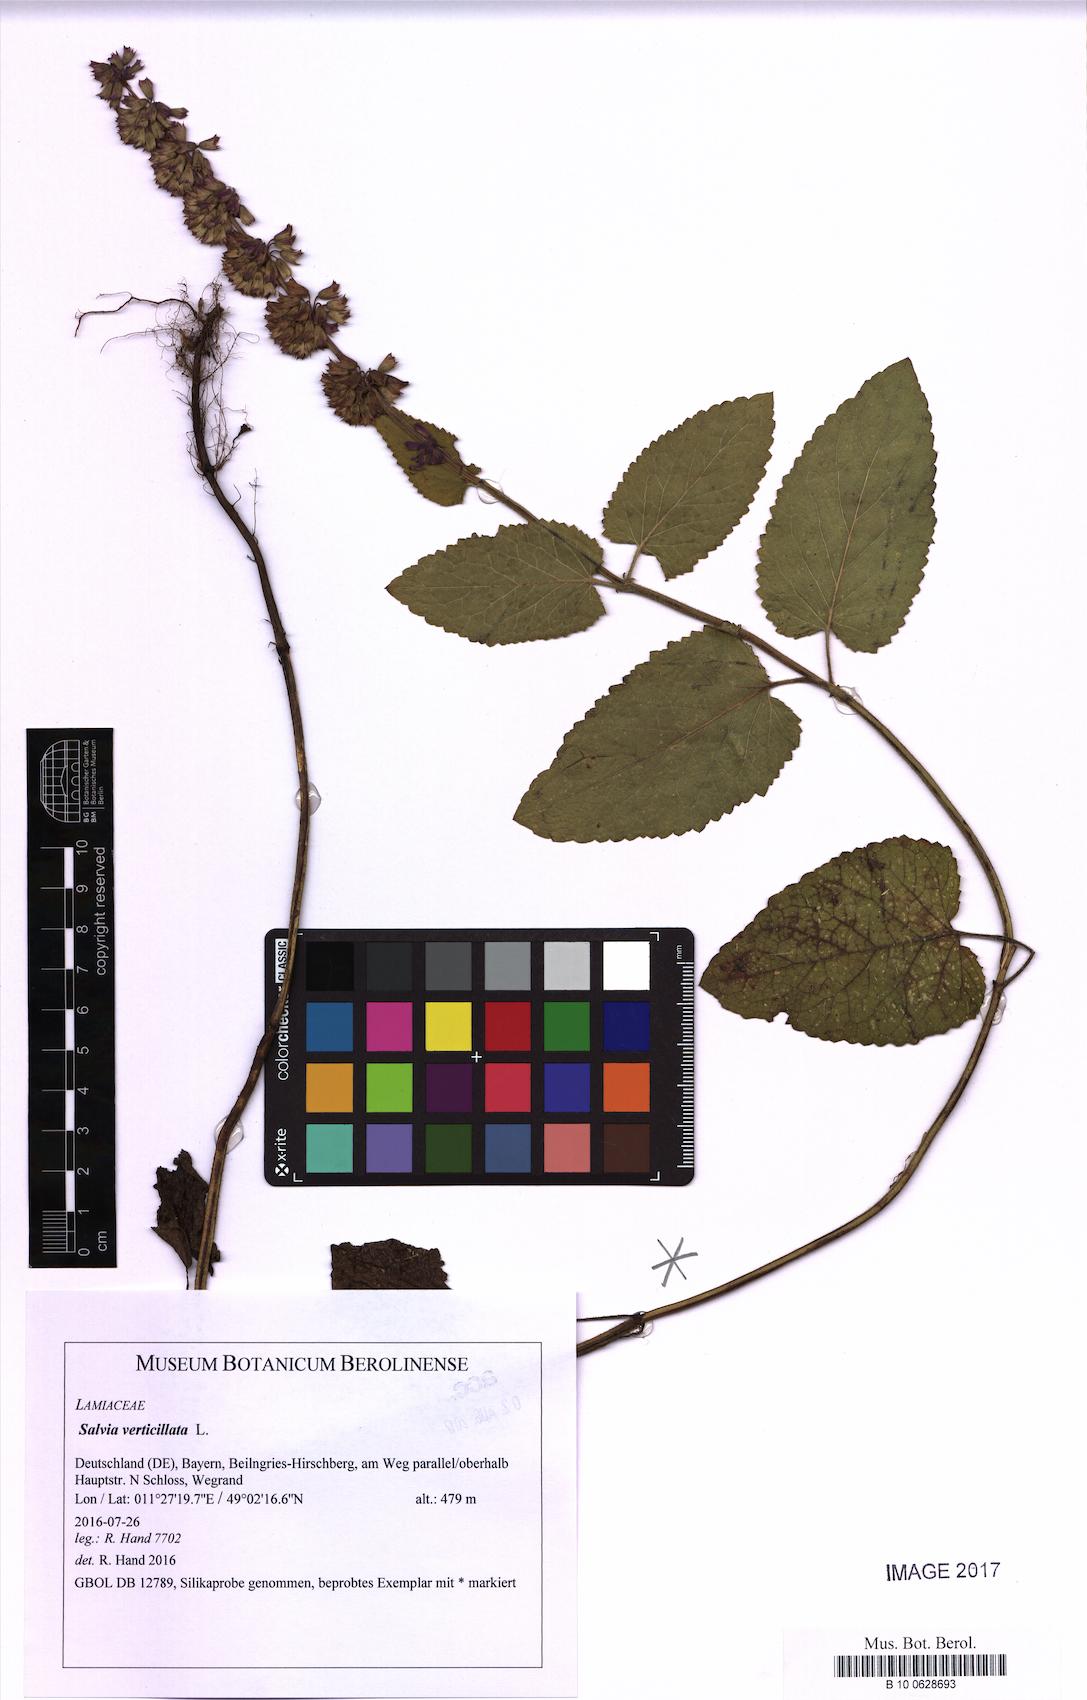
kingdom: Plantae
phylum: Tracheophyta
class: Magnoliopsida
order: Lamiales
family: Lamiaceae
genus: Salvia
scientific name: Salvia verticillata
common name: Whorled clary
